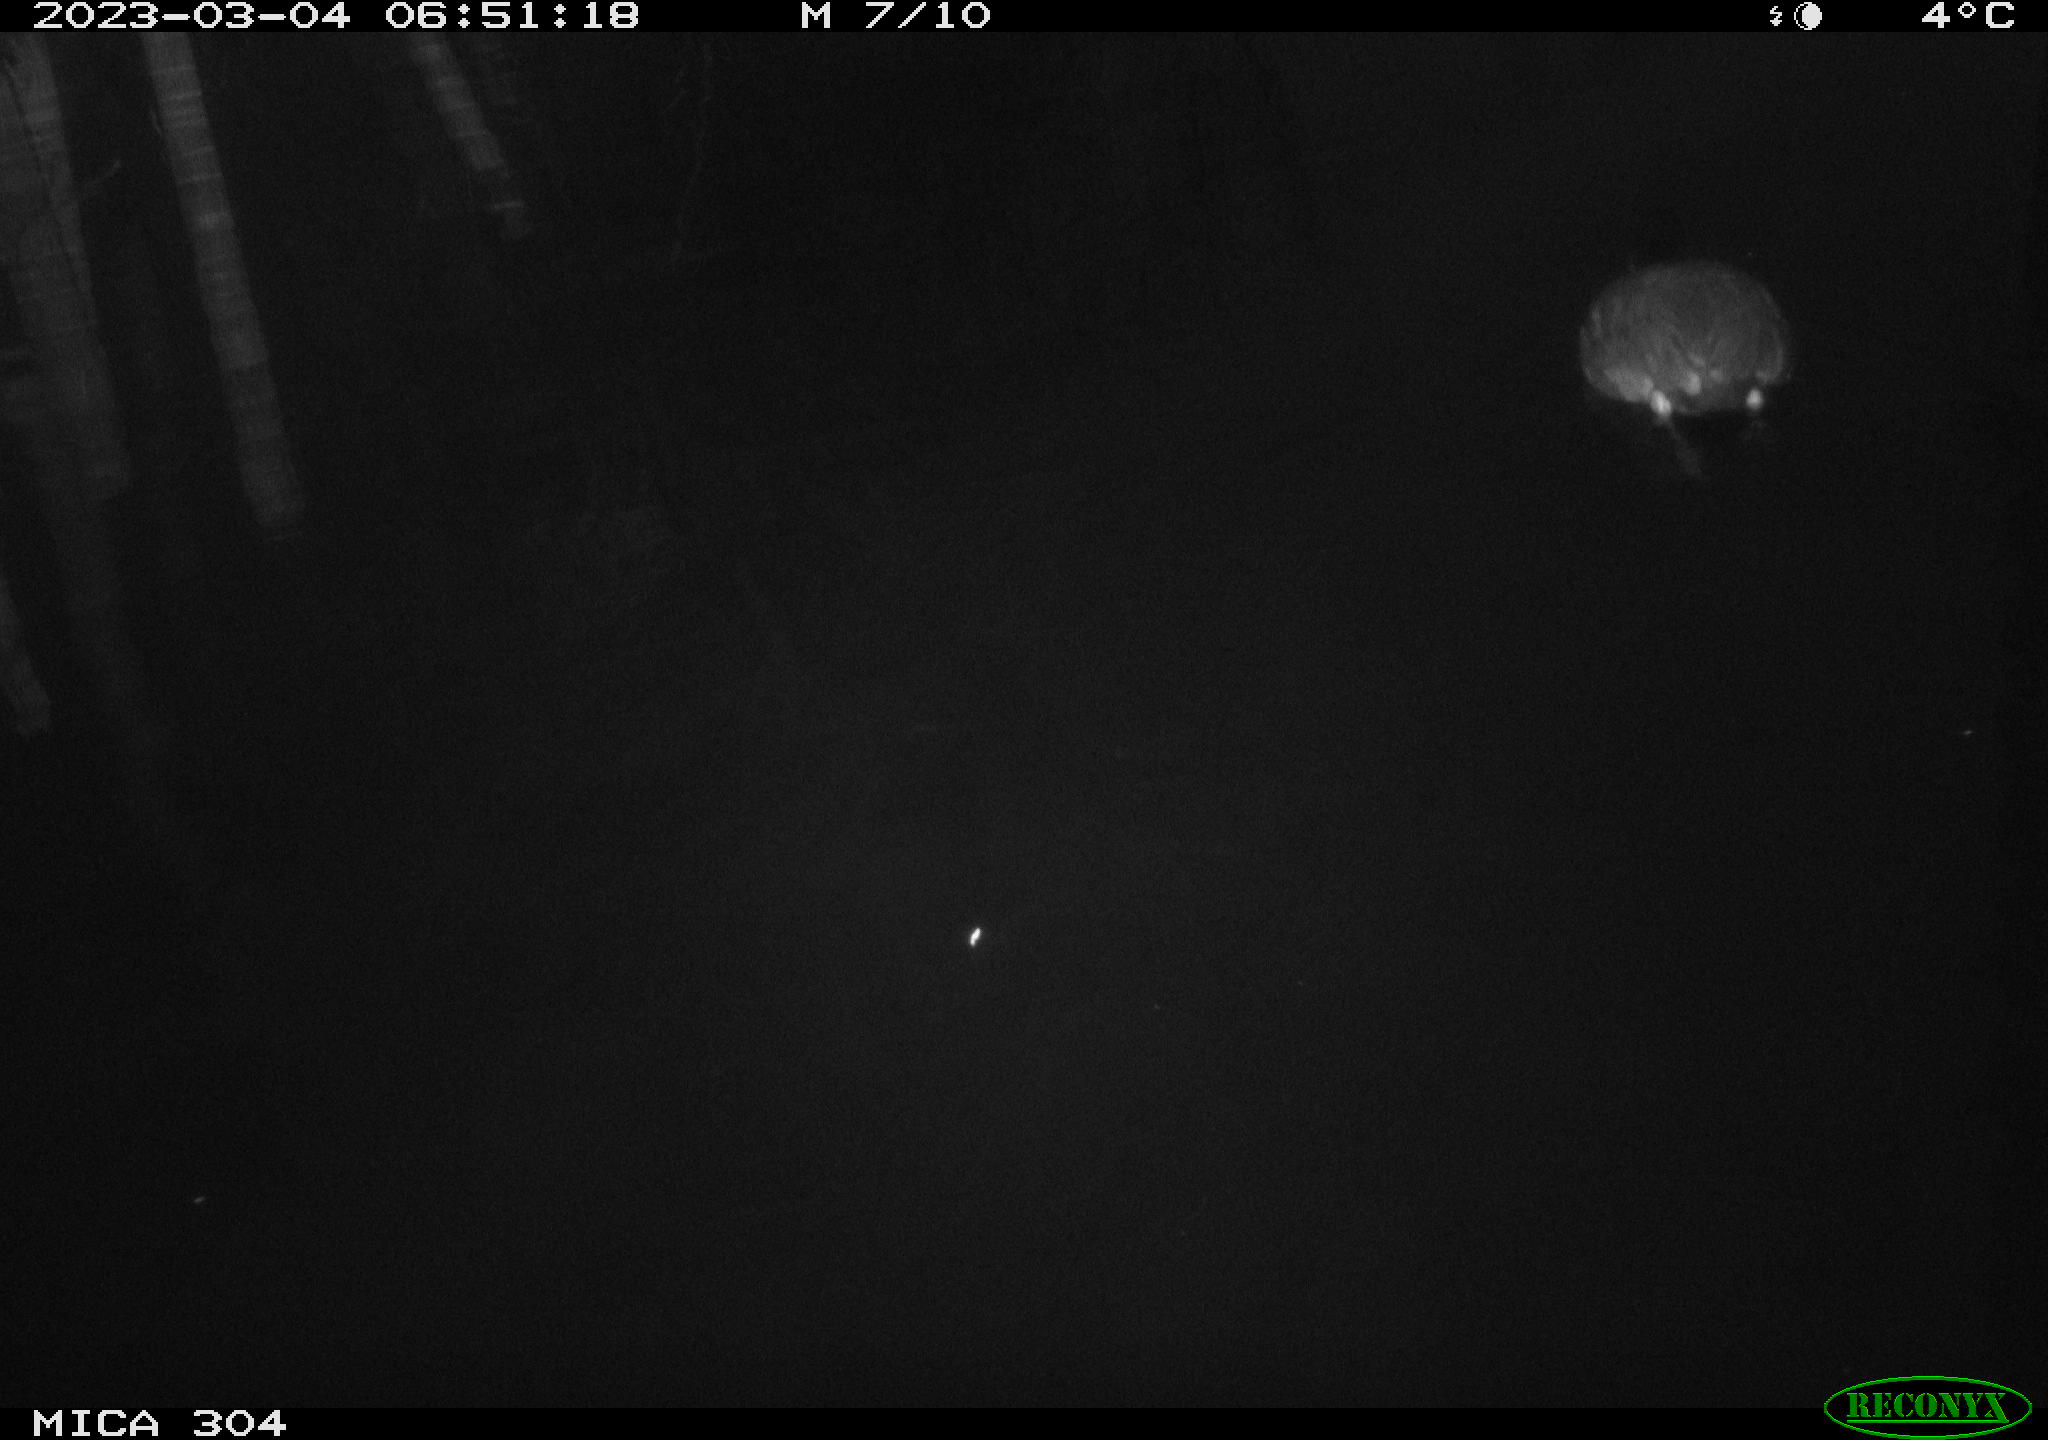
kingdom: Animalia
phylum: Chordata
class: Aves
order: Gruiformes
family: Rallidae
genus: Fulica
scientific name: Fulica atra
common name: Eurasian coot
